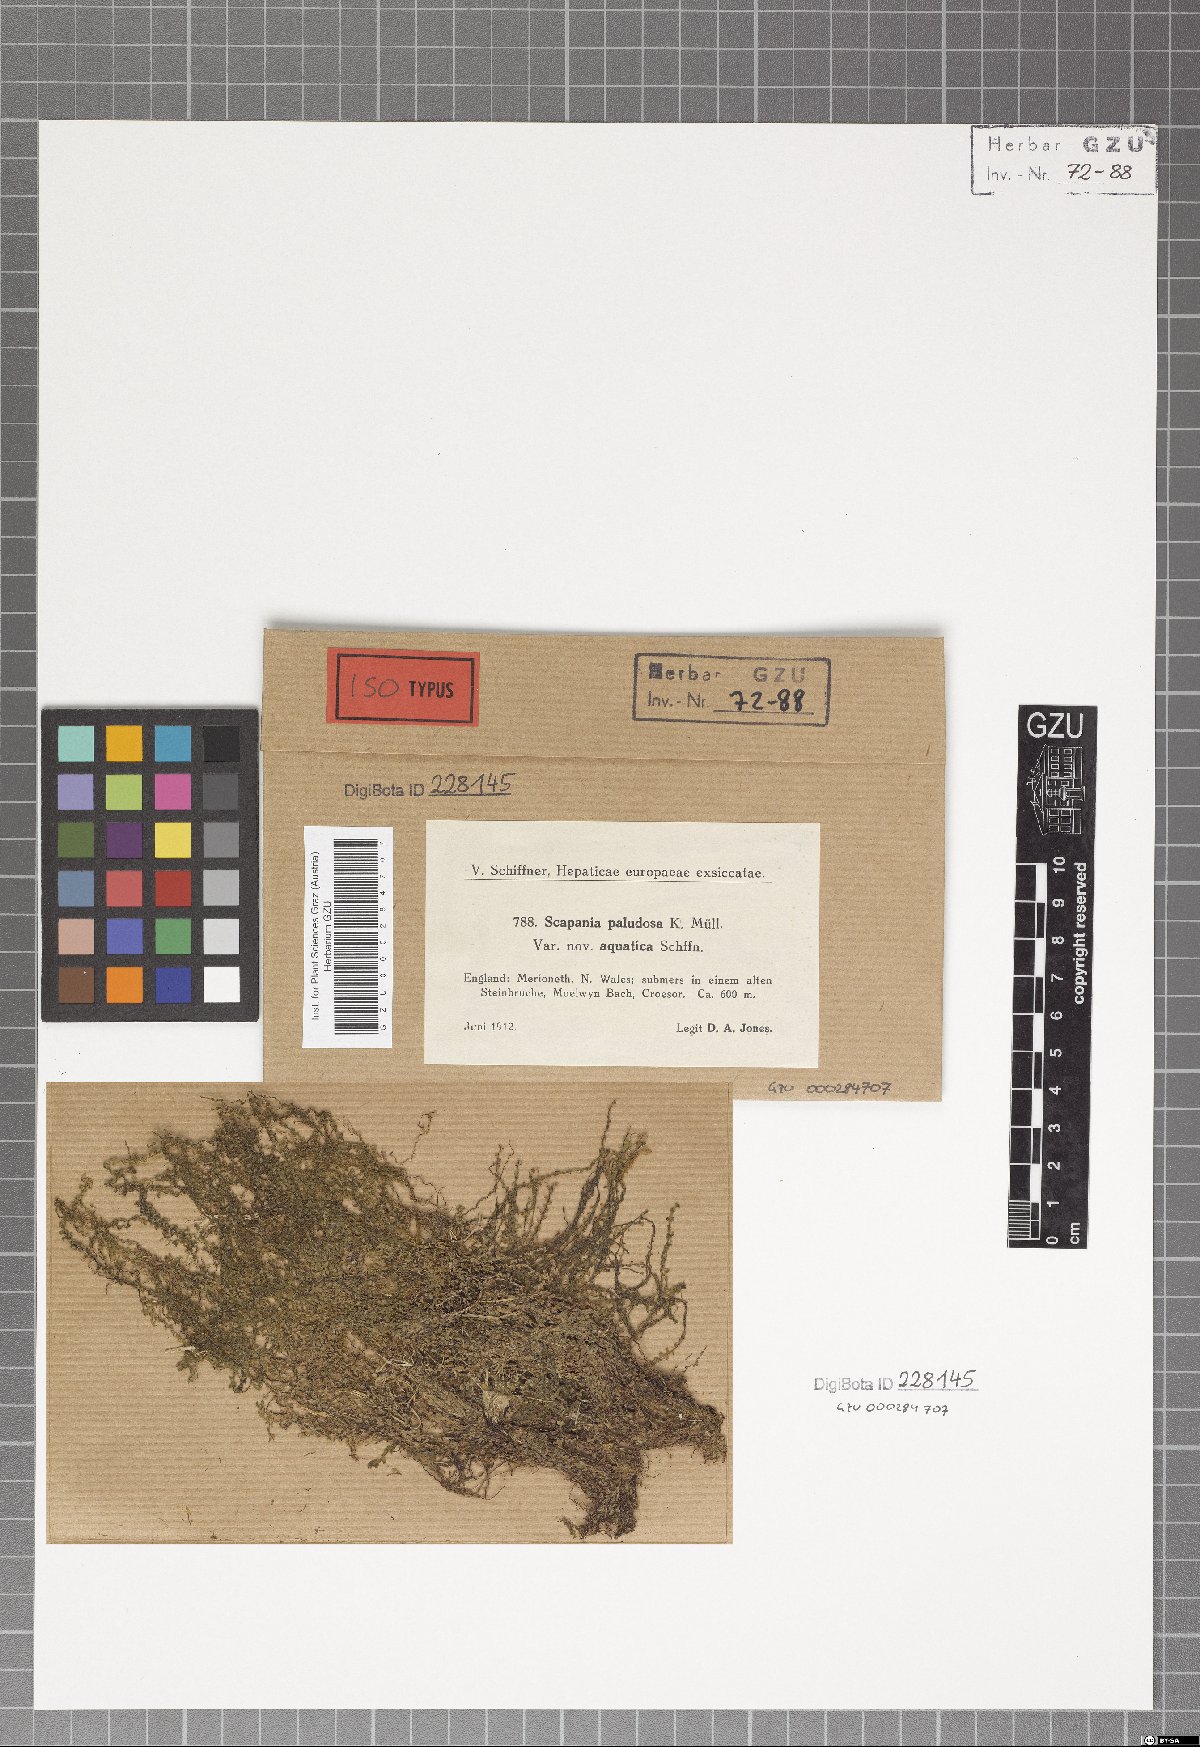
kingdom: Plantae
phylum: Marchantiophyta
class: Jungermanniopsida
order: Jungermanniales
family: Scapaniaceae
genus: Scapania
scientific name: Scapania undulata
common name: Water earwort
